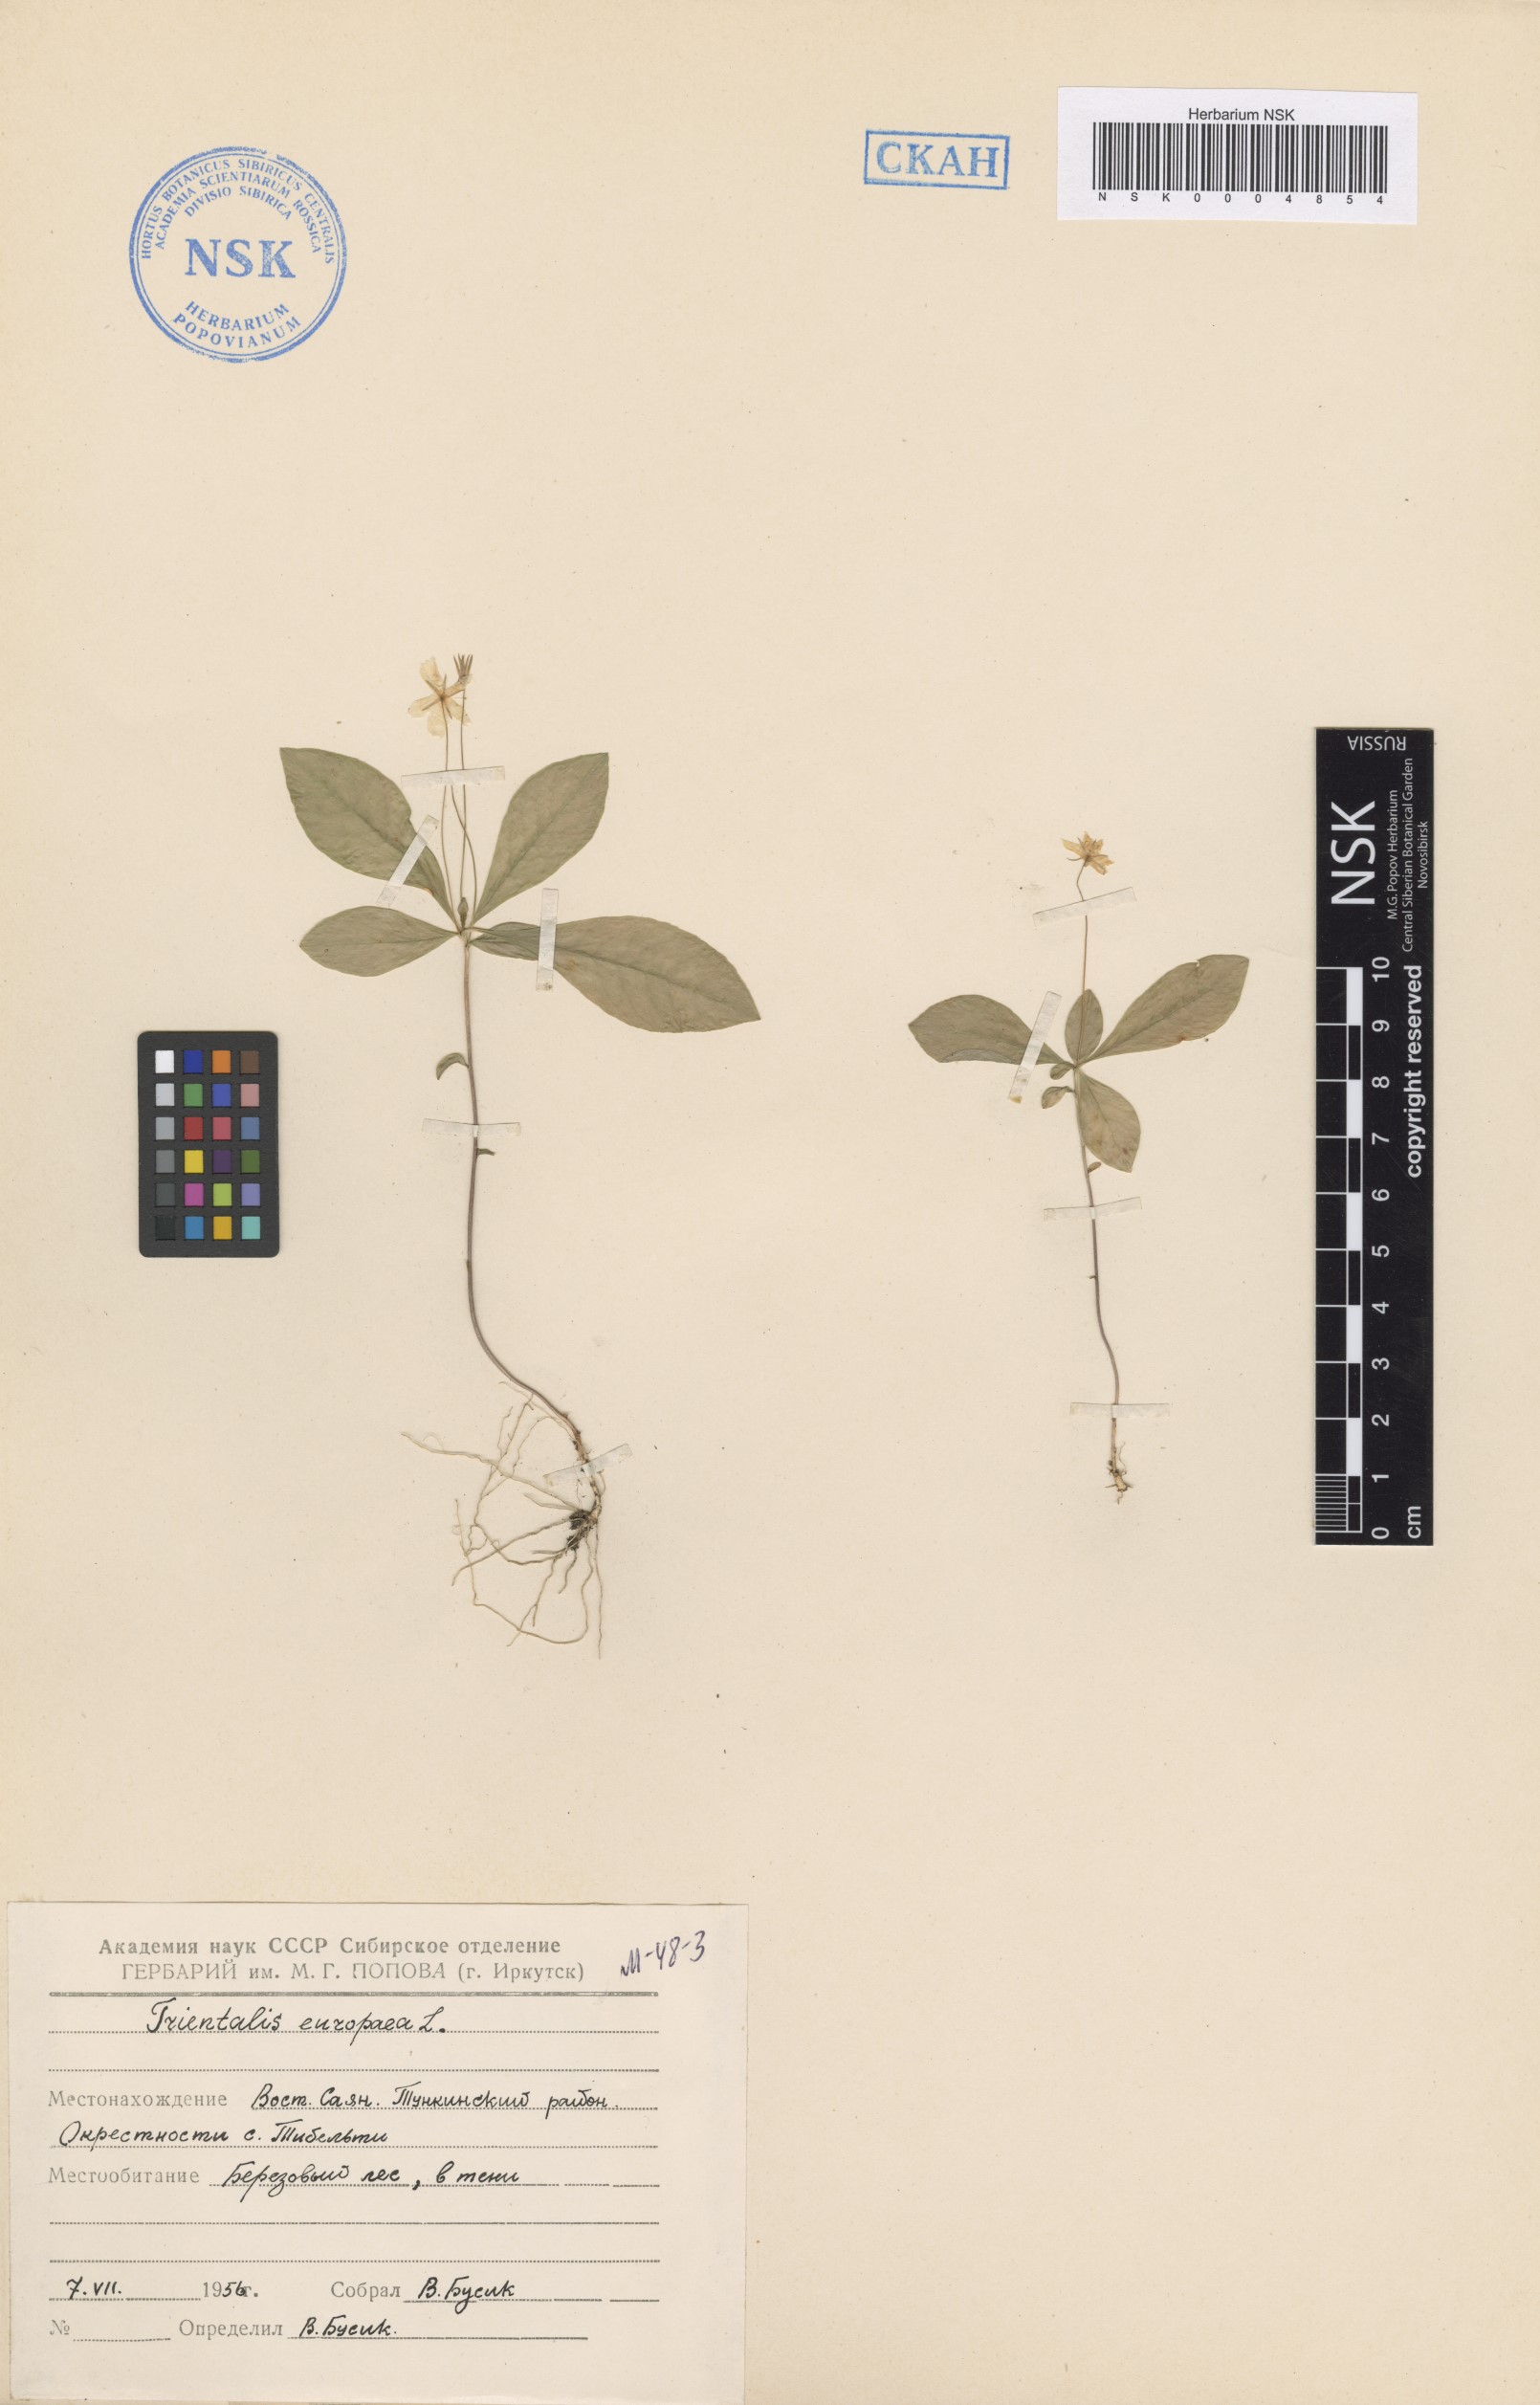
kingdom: Plantae
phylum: Tracheophyta
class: Magnoliopsida
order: Ericales
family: Primulaceae
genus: Lysimachia
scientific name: Lysimachia europaea
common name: Arctic starflower
